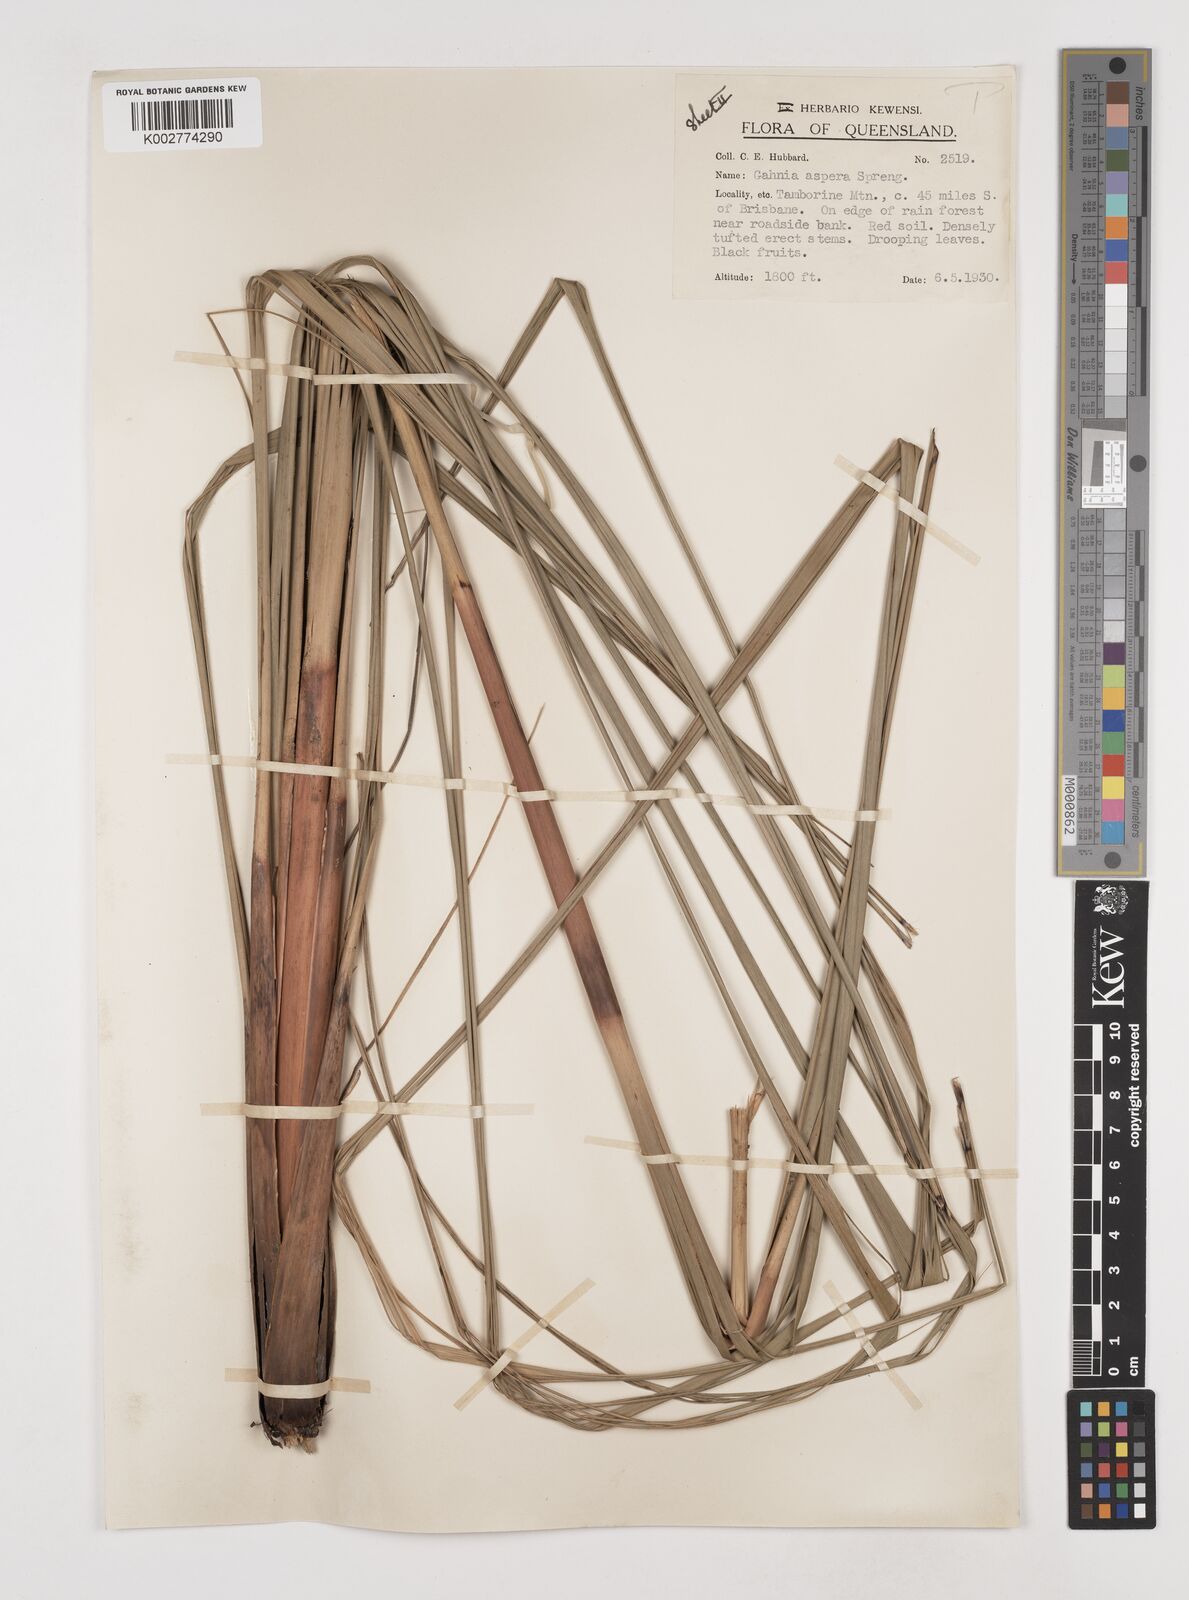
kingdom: Plantae
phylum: Tracheophyta
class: Liliopsida
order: Poales
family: Cyperaceae
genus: Gahnia
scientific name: Gahnia aspera
